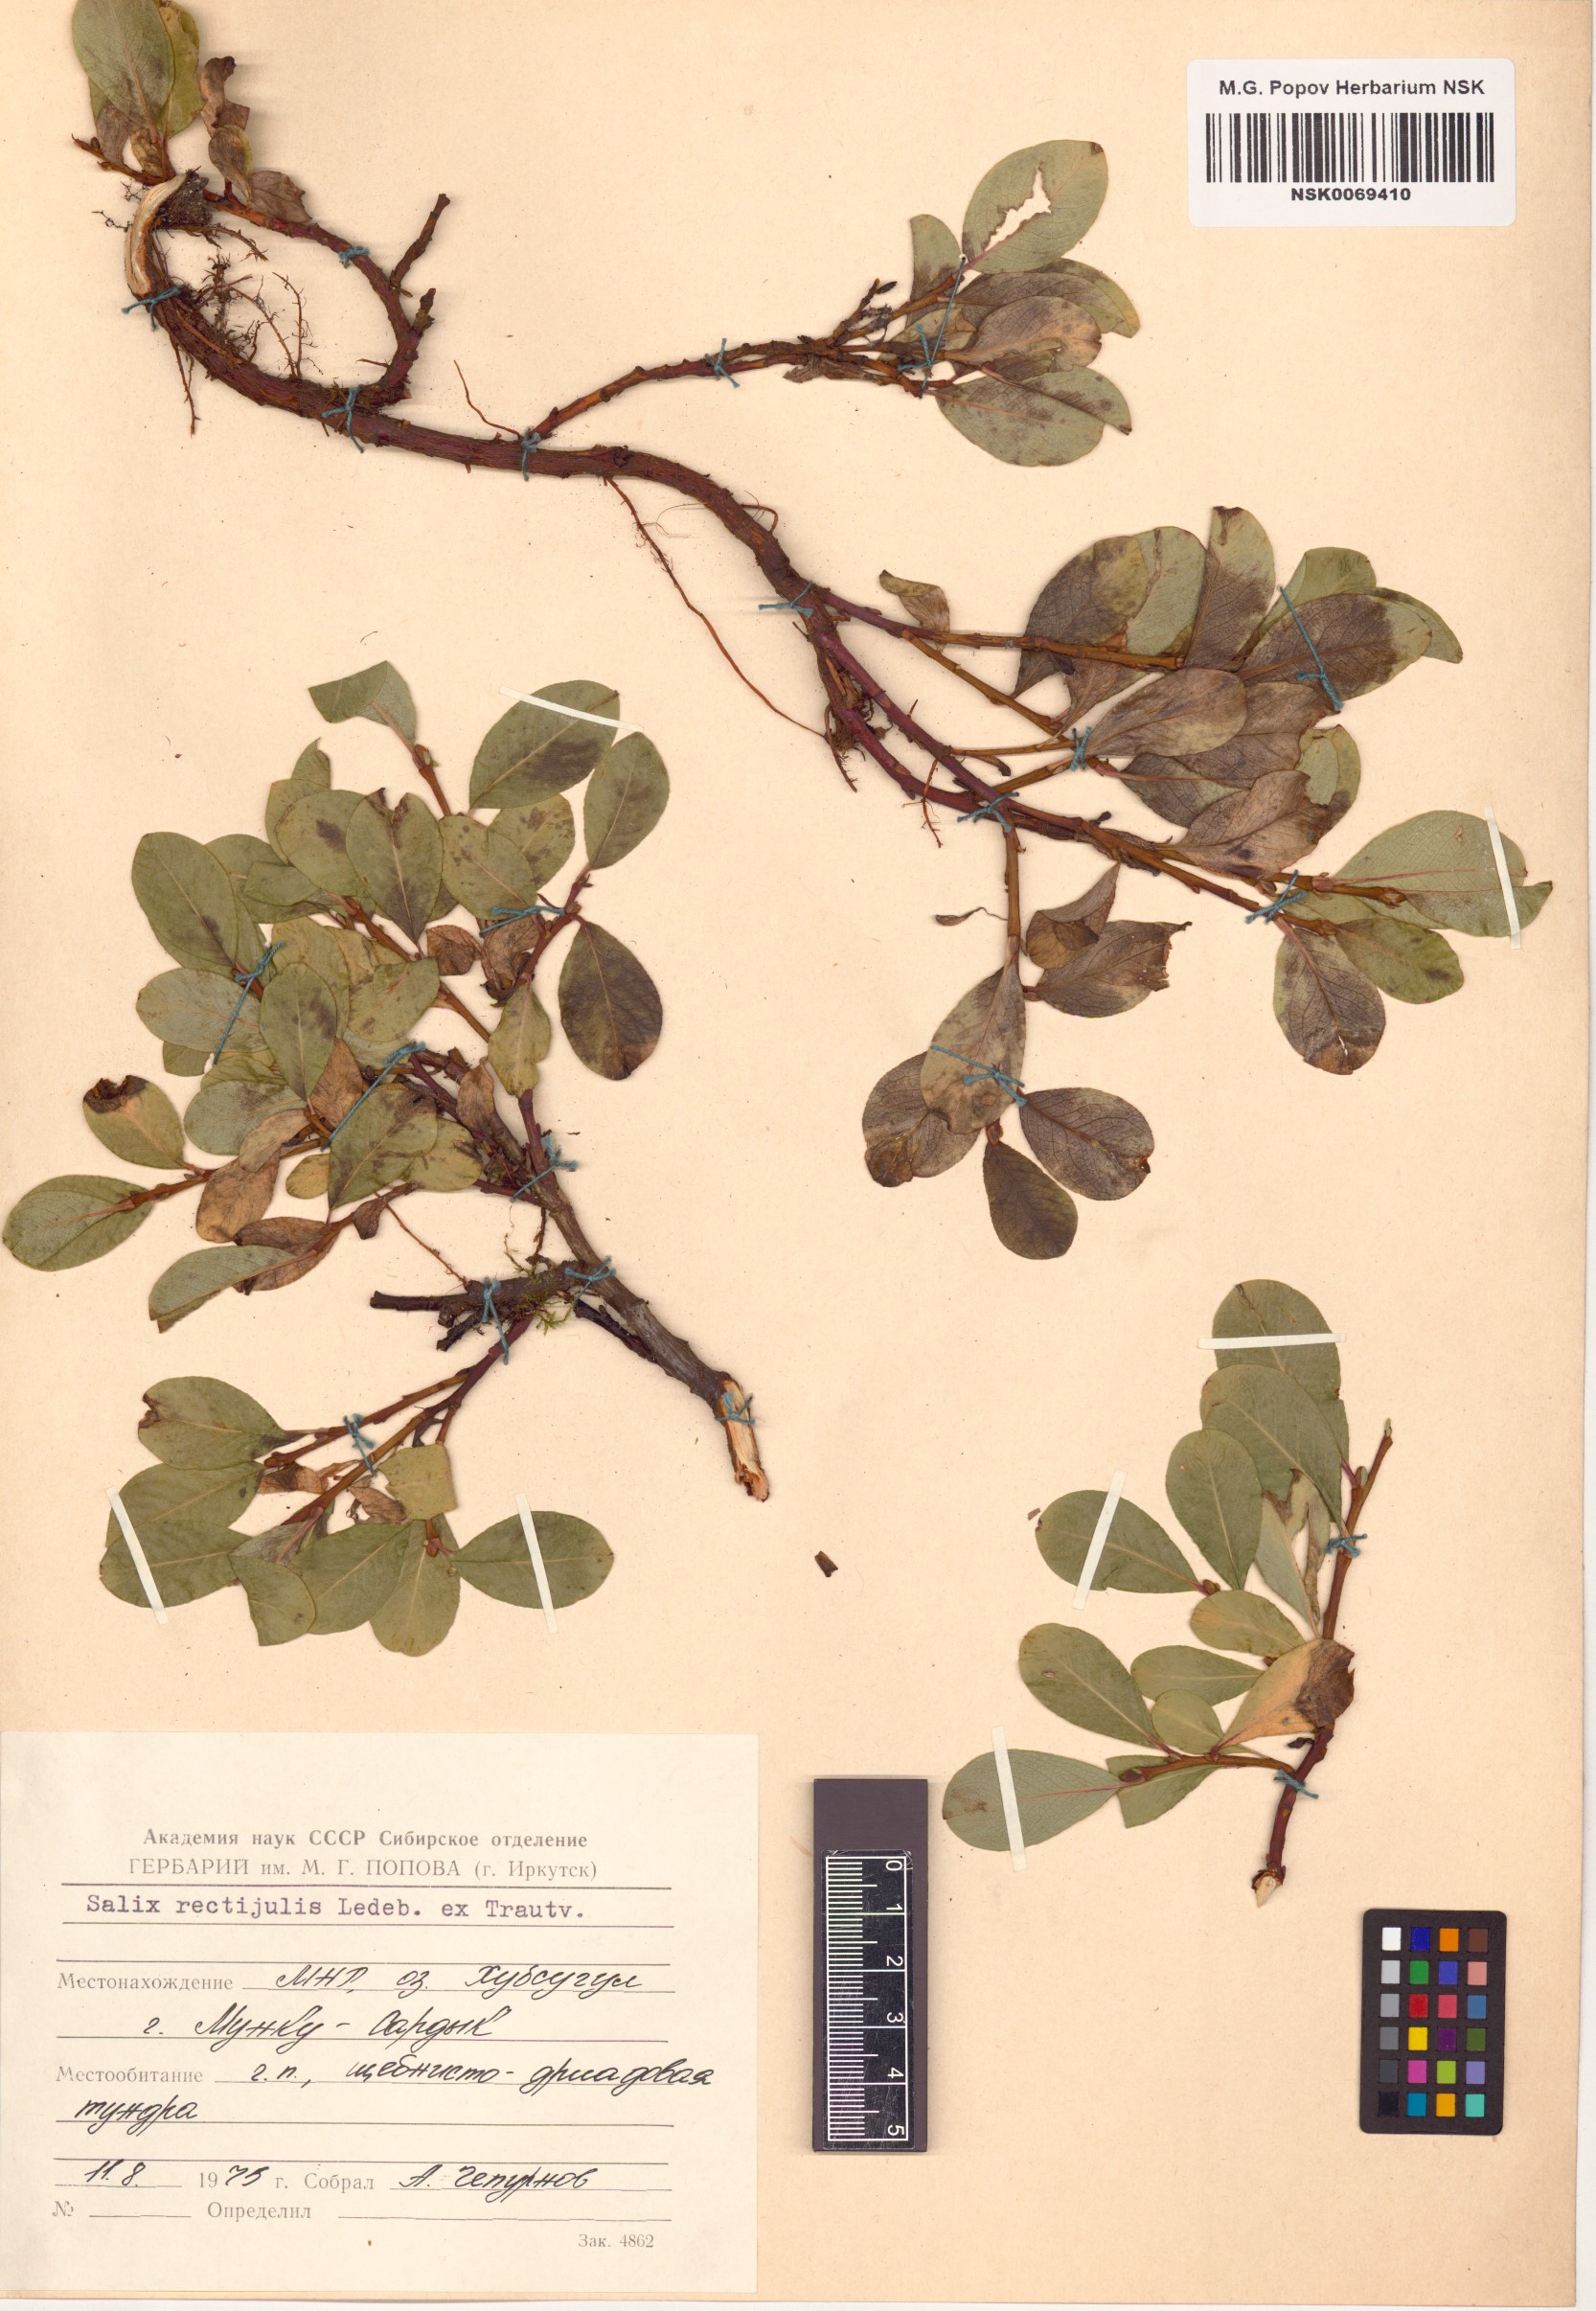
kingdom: Plantae
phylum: Tracheophyta
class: Magnoliopsida
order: Malpighiales
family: Salicaceae
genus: Salix
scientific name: Salix rectijulis
